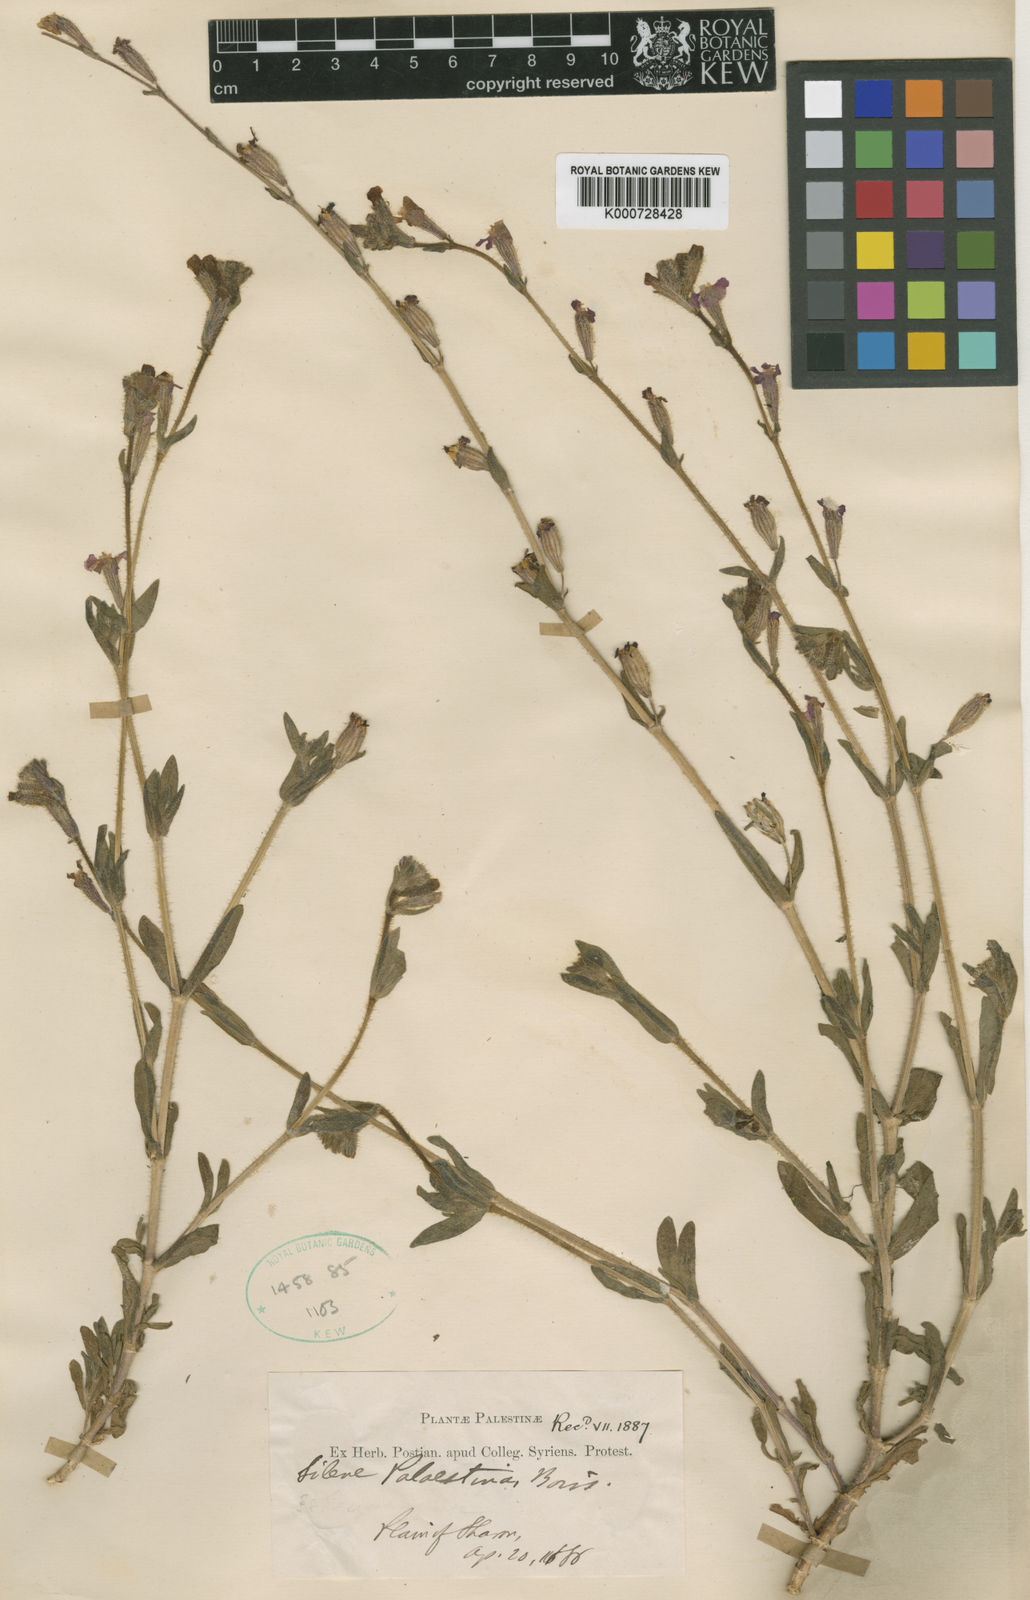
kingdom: Plantae
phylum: Tracheophyta
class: Magnoliopsida
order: Caryophyllales
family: Caryophyllaceae
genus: Silene
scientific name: Silene palaestina
